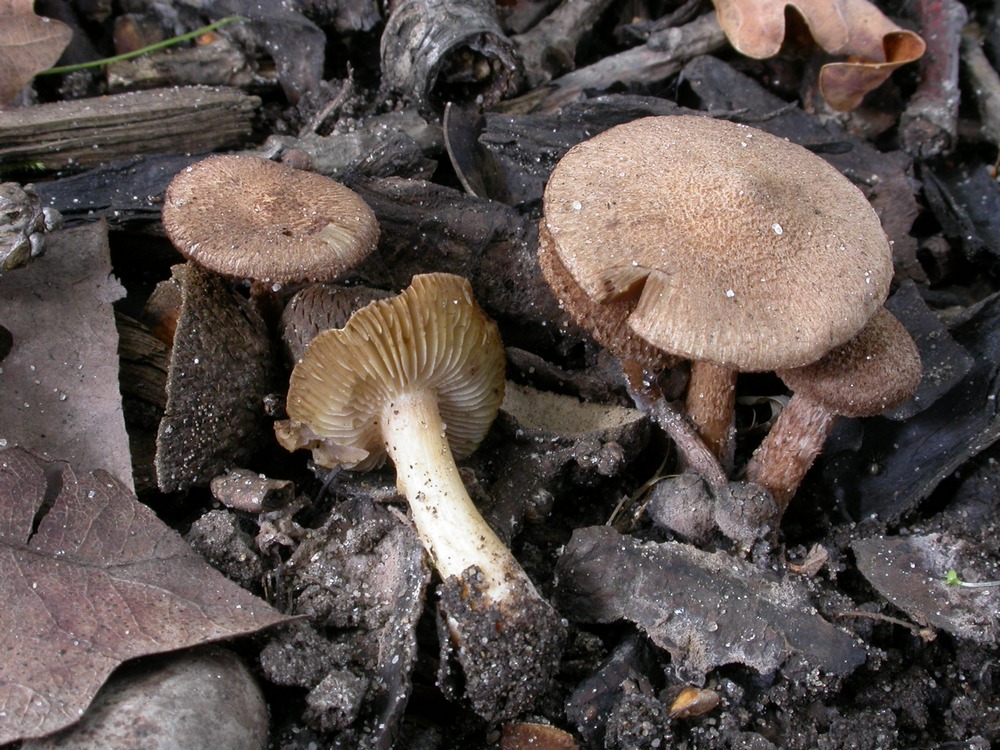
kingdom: Fungi
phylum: Basidiomycota
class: Agaricomycetes
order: Agaricales
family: Inocybaceae
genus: Inocybe
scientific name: Inocybe cincinnata
